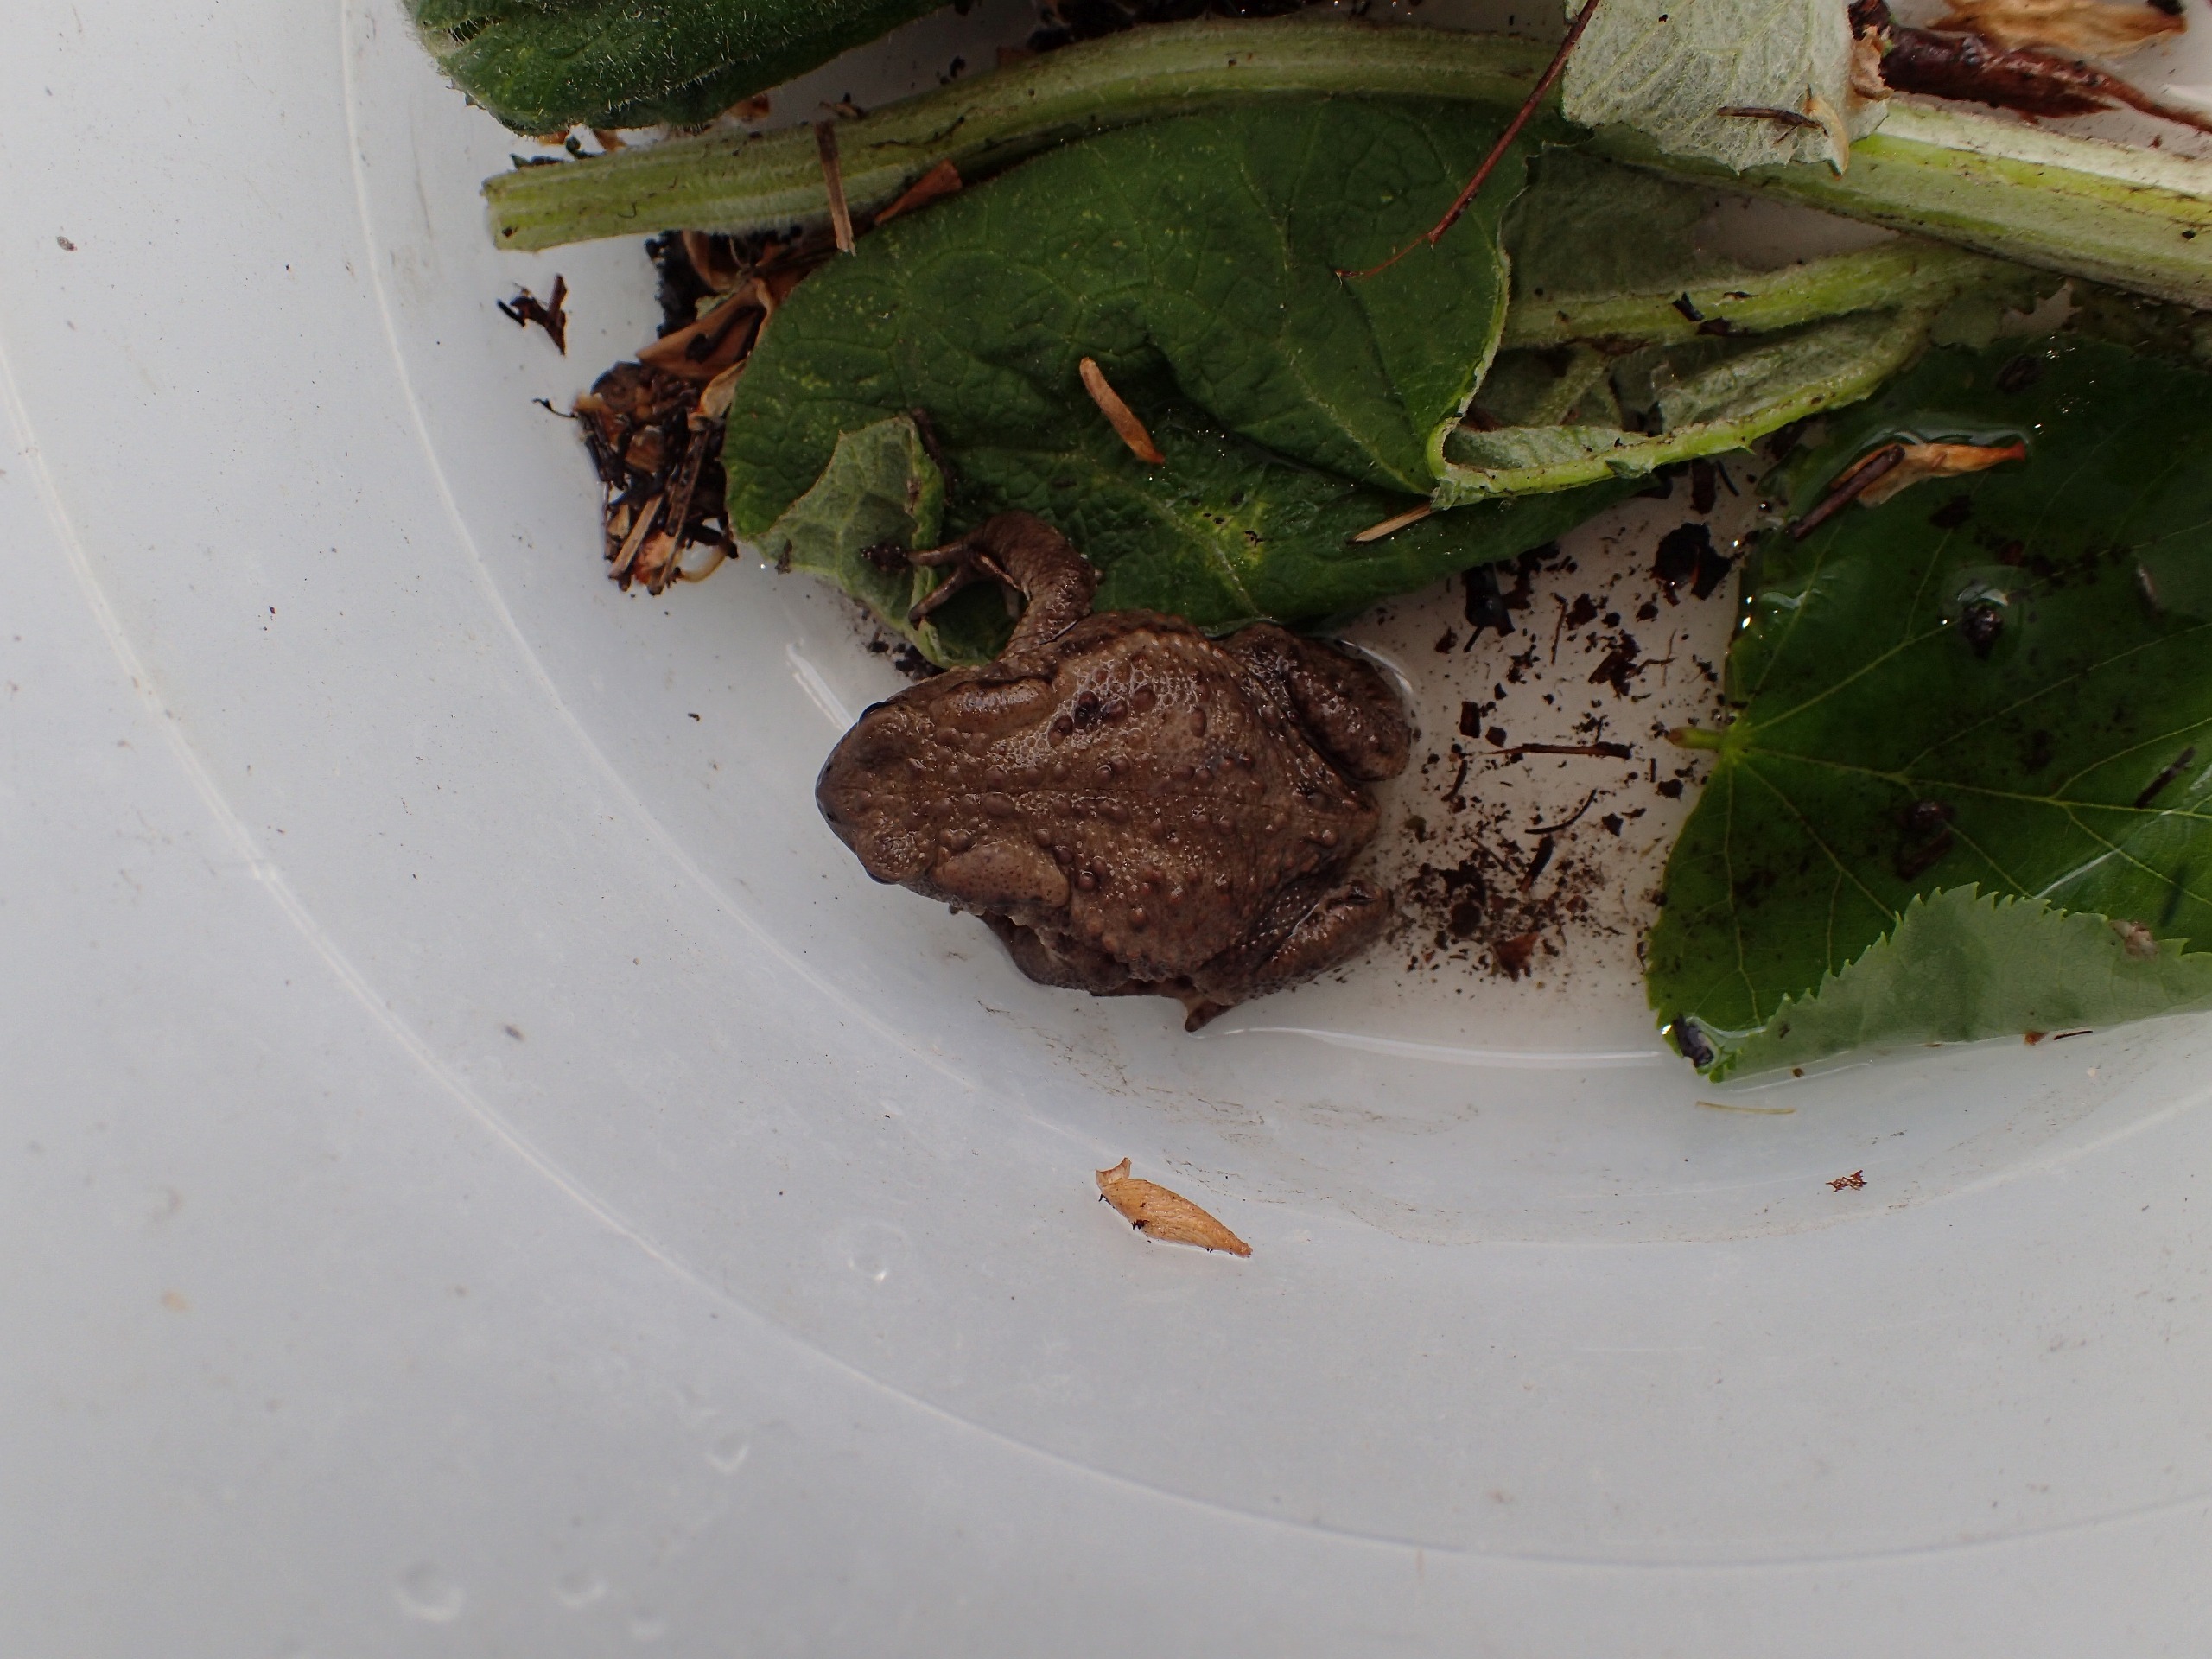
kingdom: Animalia
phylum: Chordata
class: Amphibia
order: Anura
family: Bufonidae
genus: Bufo
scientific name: Bufo bufo
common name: Skrubtudse
